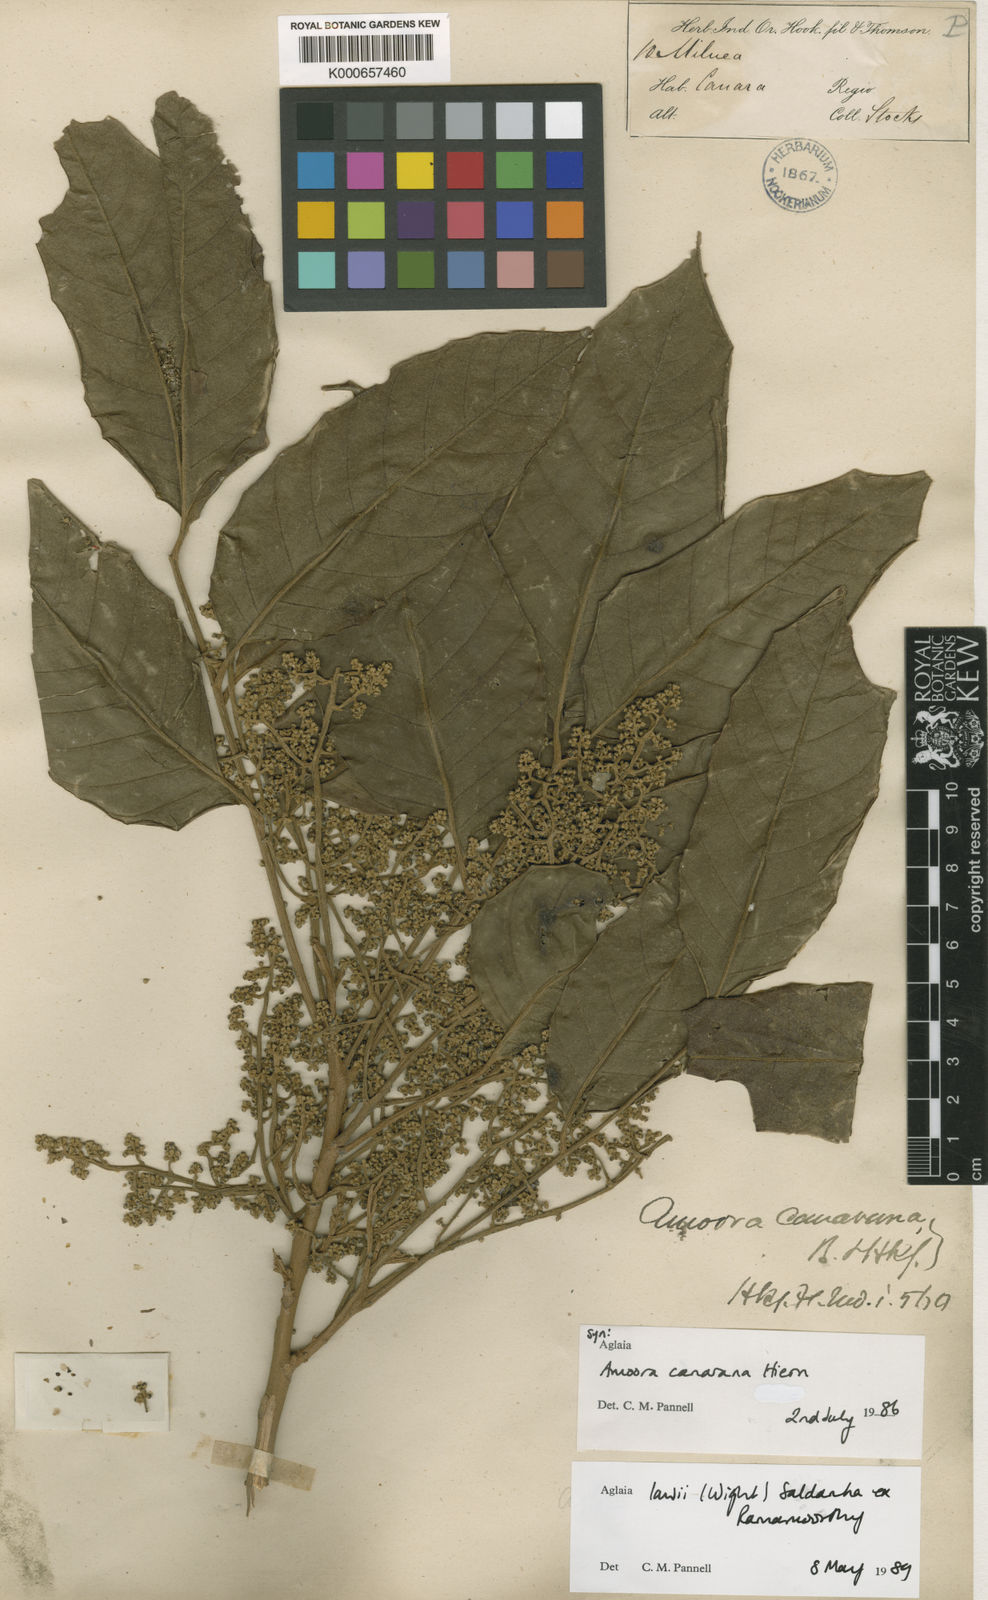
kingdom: Plantae
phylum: Tracheophyta
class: Magnoliopsida
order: Sapindales
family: Meliaceae
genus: Aglaia
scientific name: Aglaia
